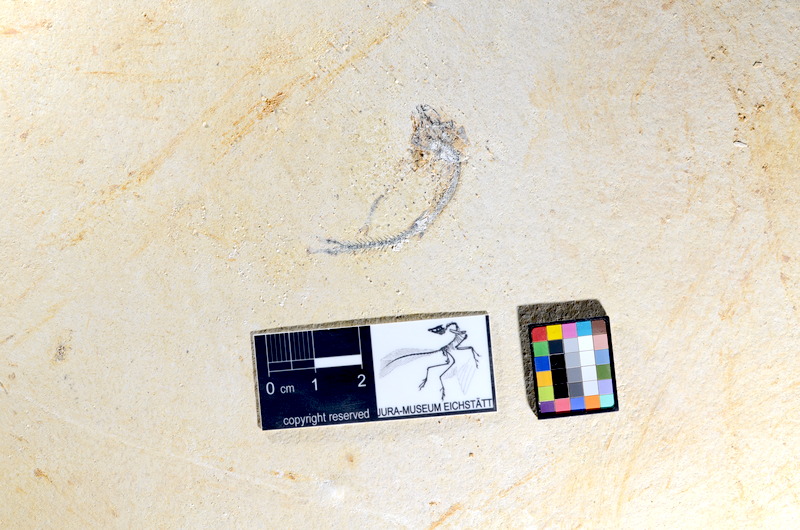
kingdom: Animalia
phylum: Chordata
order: Salmoniformes
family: Orthogonikleithridae
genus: Orthogonikleithrus
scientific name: Orthogonikleithrus hoelli
